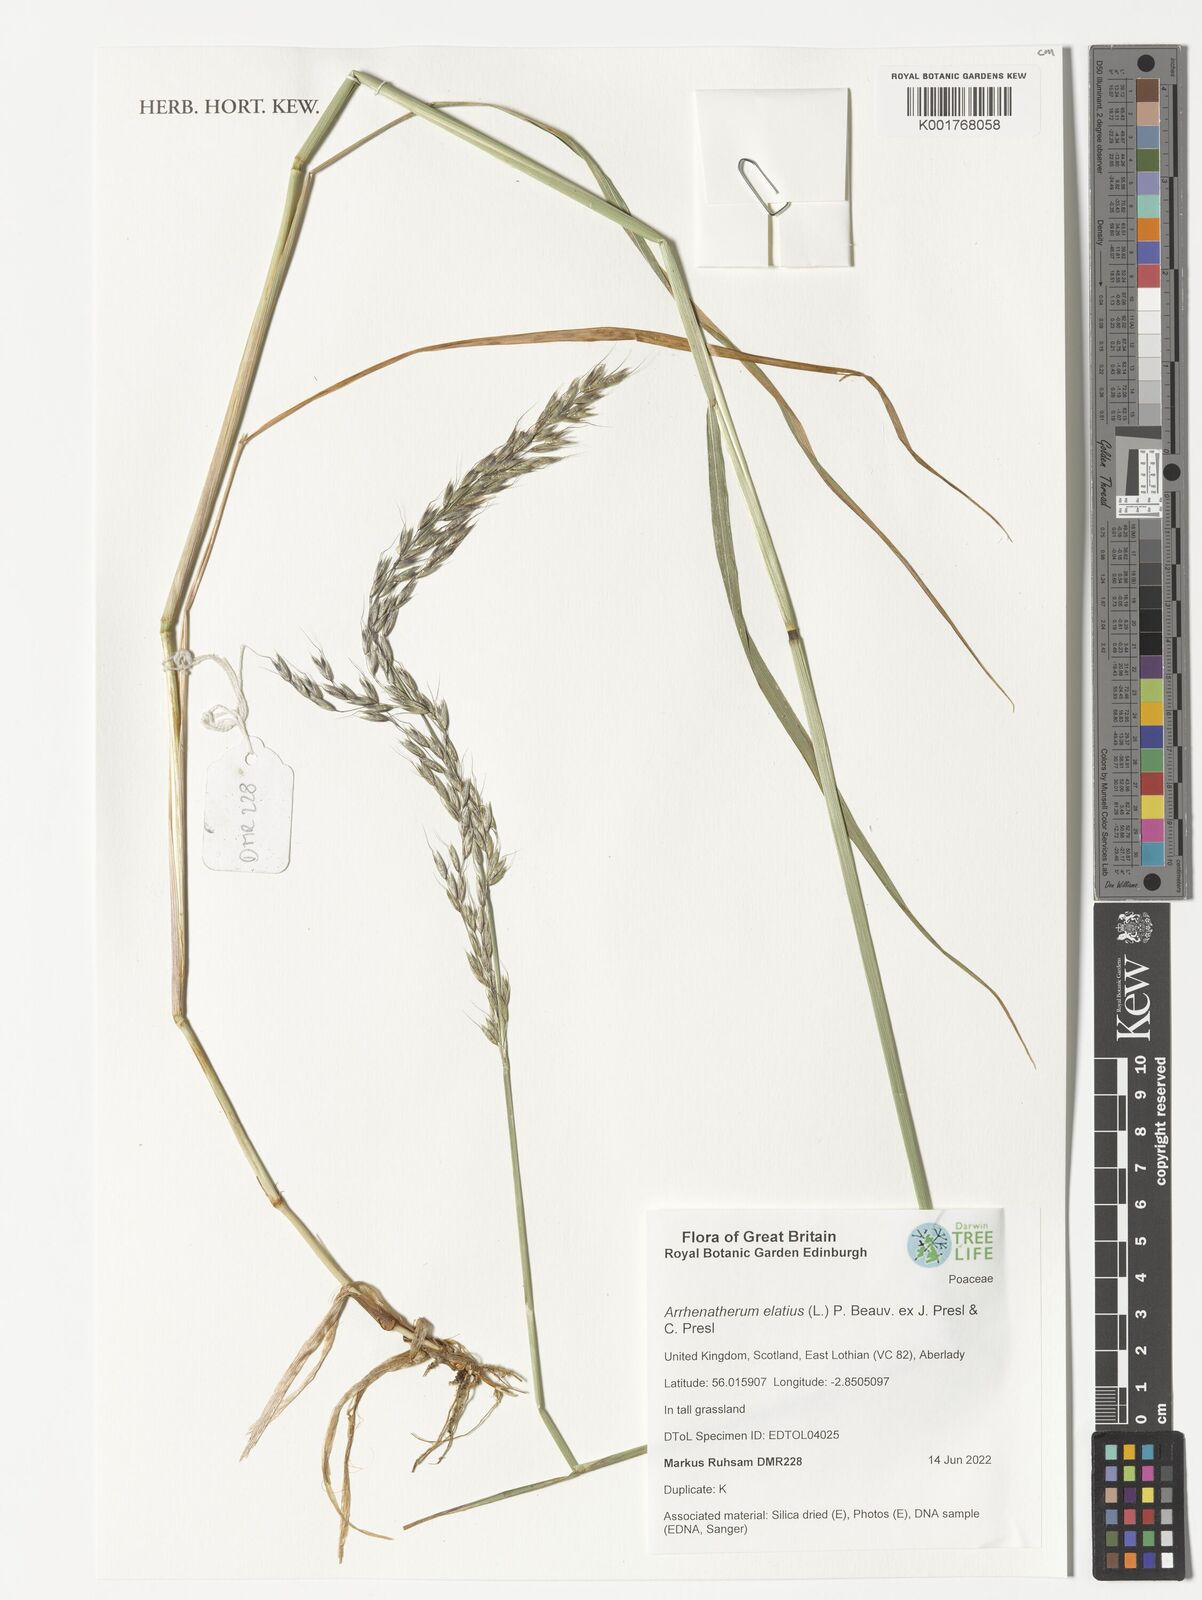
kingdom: Plantae
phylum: Tracheophyta
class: Liliopsida
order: Poales
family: Poaceae
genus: Arrhenatherum
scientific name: Arrhenatherum elatius
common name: Tall oatgrass
